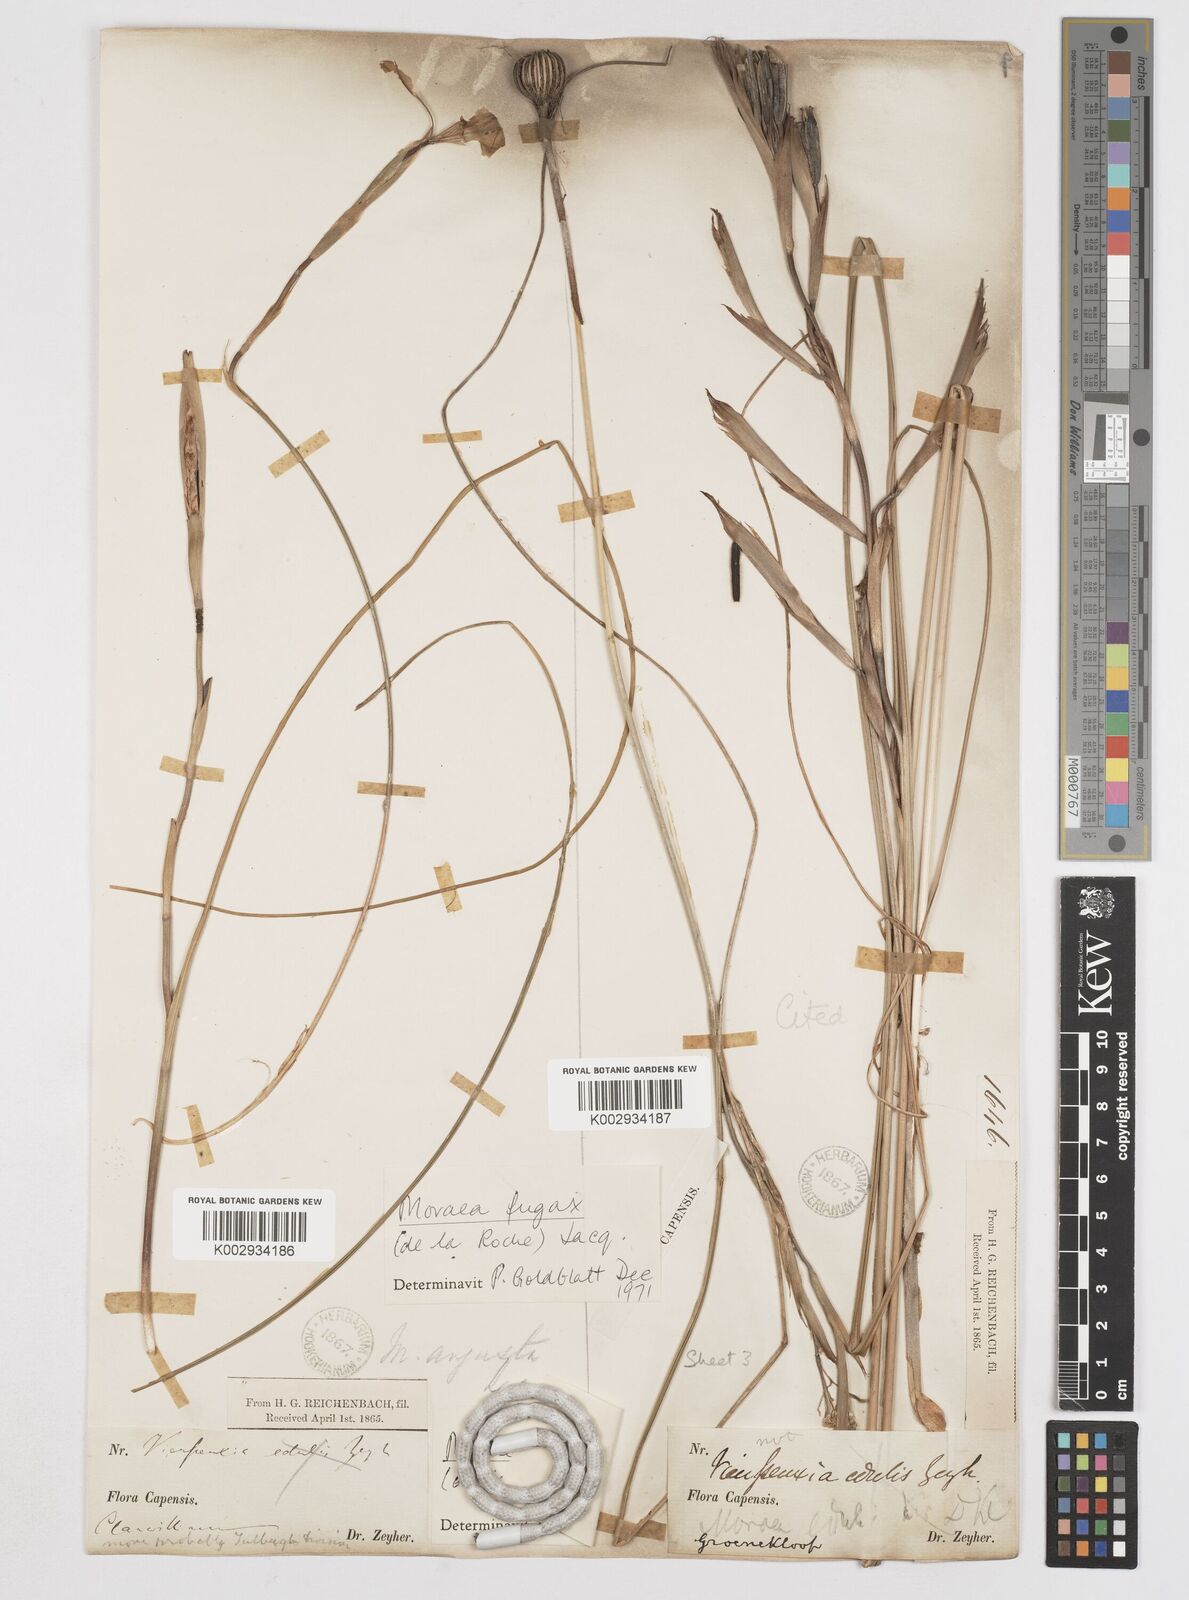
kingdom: Plantae
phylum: Tracheophyta
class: Liliopsida
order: Asparagales
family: Iridaceae
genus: Moraea
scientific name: Moraea fugax
